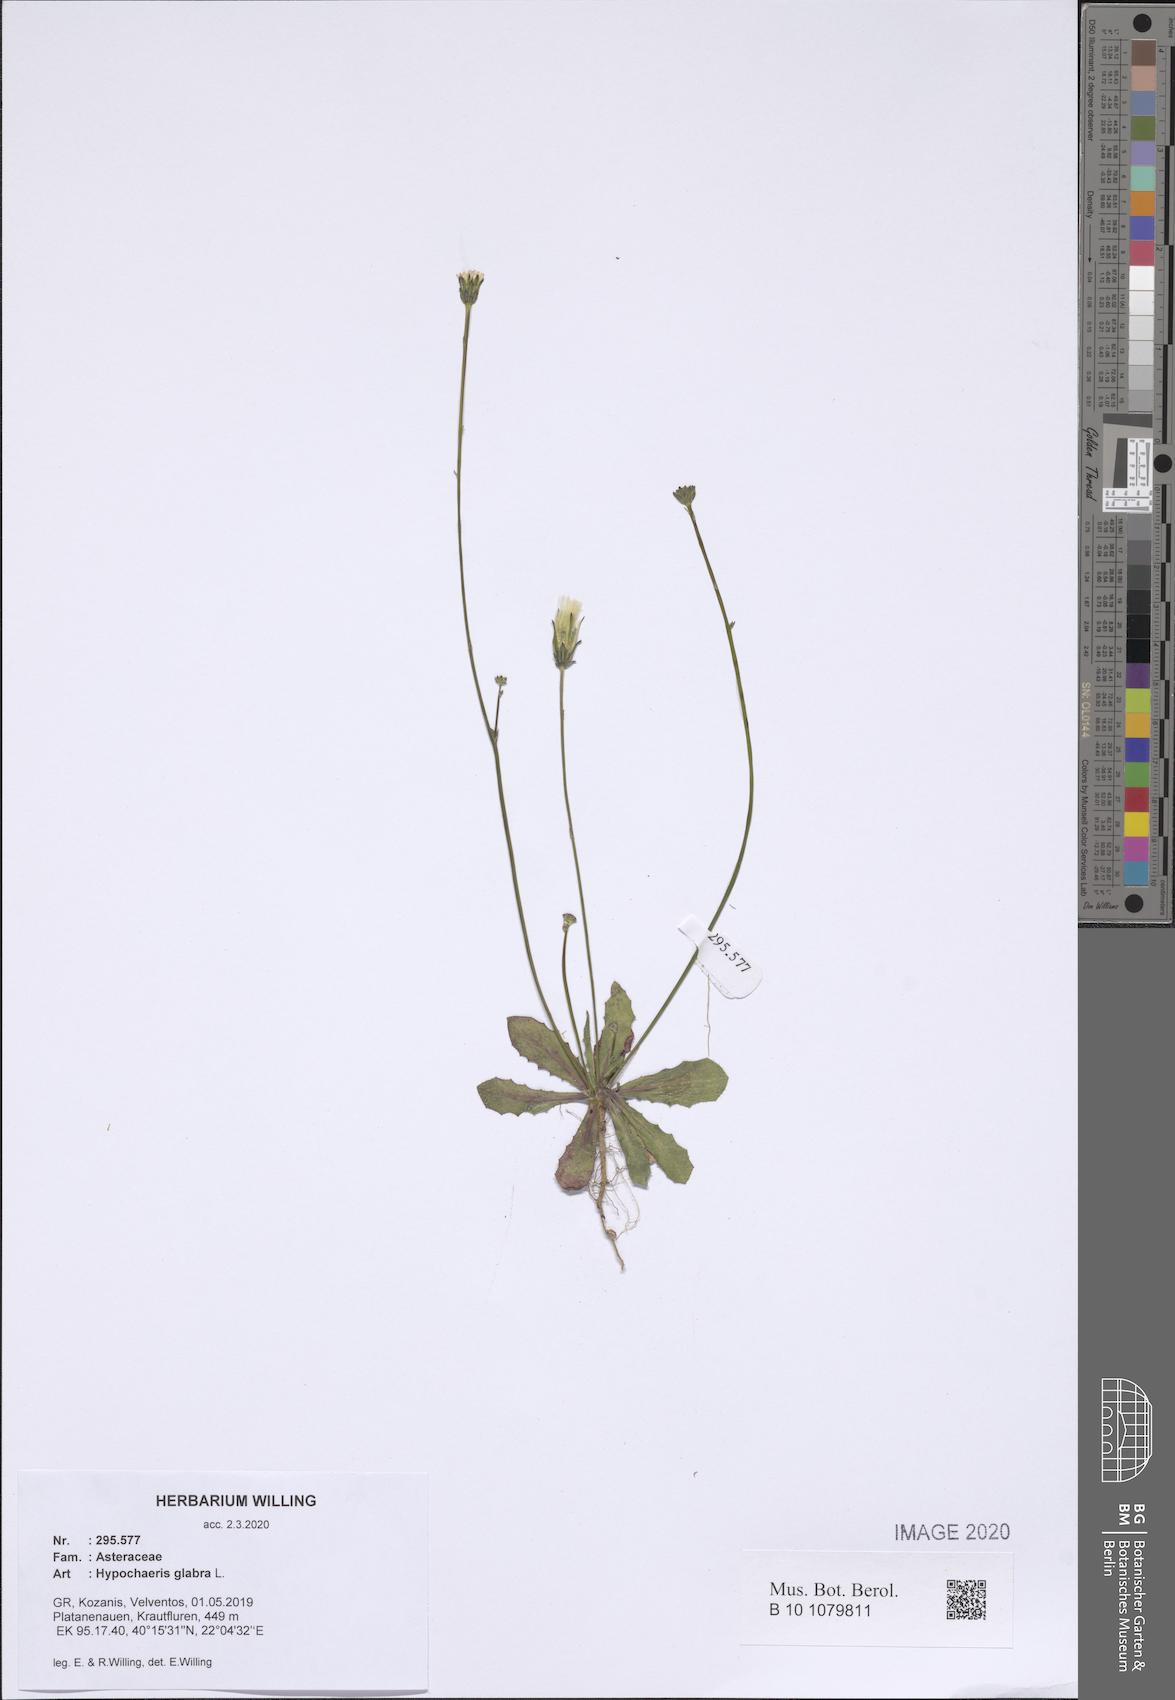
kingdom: Plantae
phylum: Tracheophyta
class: Magnoliopsida
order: Asterales
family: Asteraceae
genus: Hypochaeris
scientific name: Hypochaeris glabra
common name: Smooth catsear
